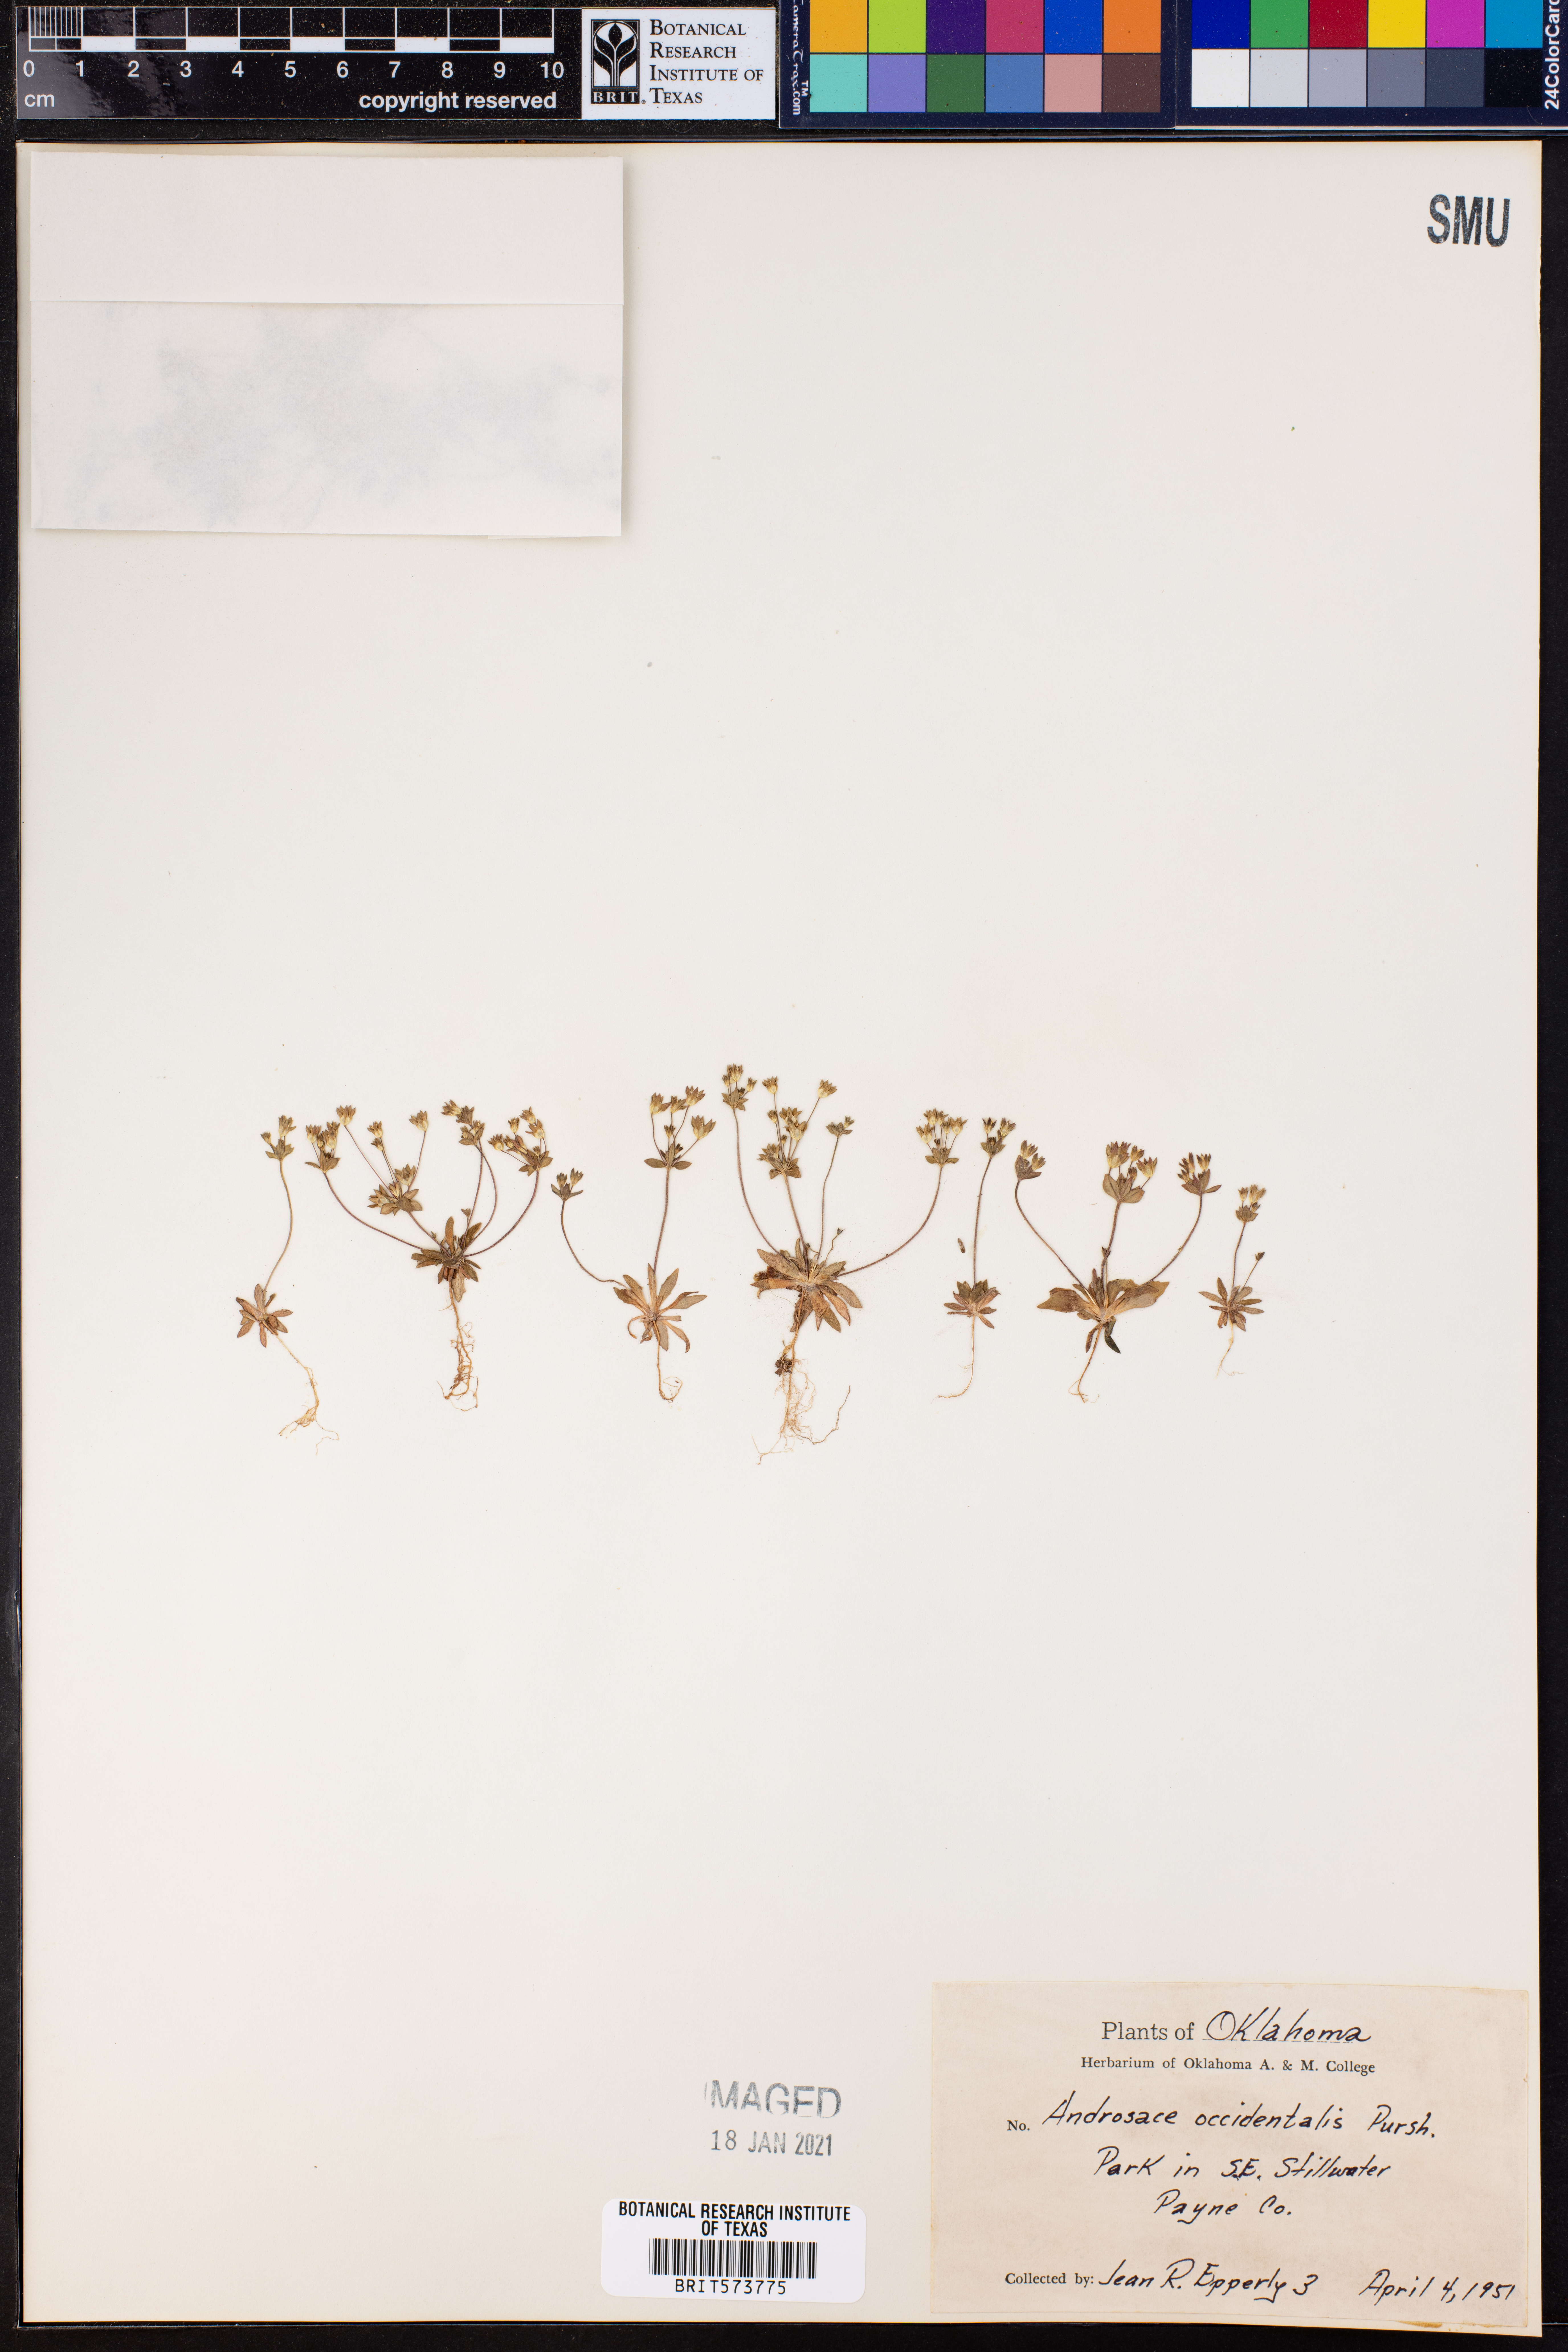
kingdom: Plantae
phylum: Tracheophyta
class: Magnoliopsida
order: Ericales
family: Primulaceae
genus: Androsace
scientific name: Androsace occidentalis
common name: West rock-jasmine
